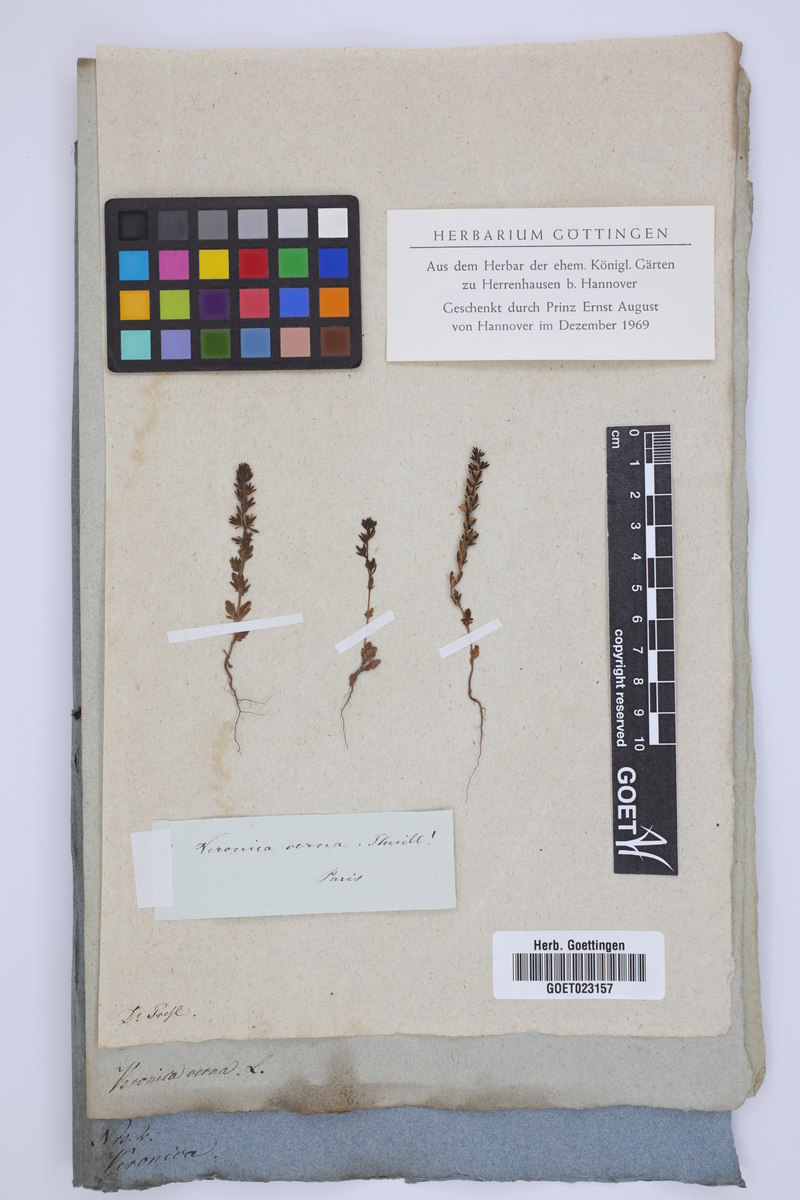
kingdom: Plantae
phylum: Tracheophyta
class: Magnoliopsida
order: Lamiales
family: Plantaginaceae
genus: Veronica
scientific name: Veronica verna
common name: Spring speedwell
